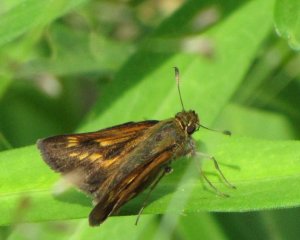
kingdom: Animalia
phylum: Arthropoda
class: Insecta
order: Lepidoptera
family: Hesperiidae
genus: Polites
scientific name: Polites
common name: Long Dash Skipper
